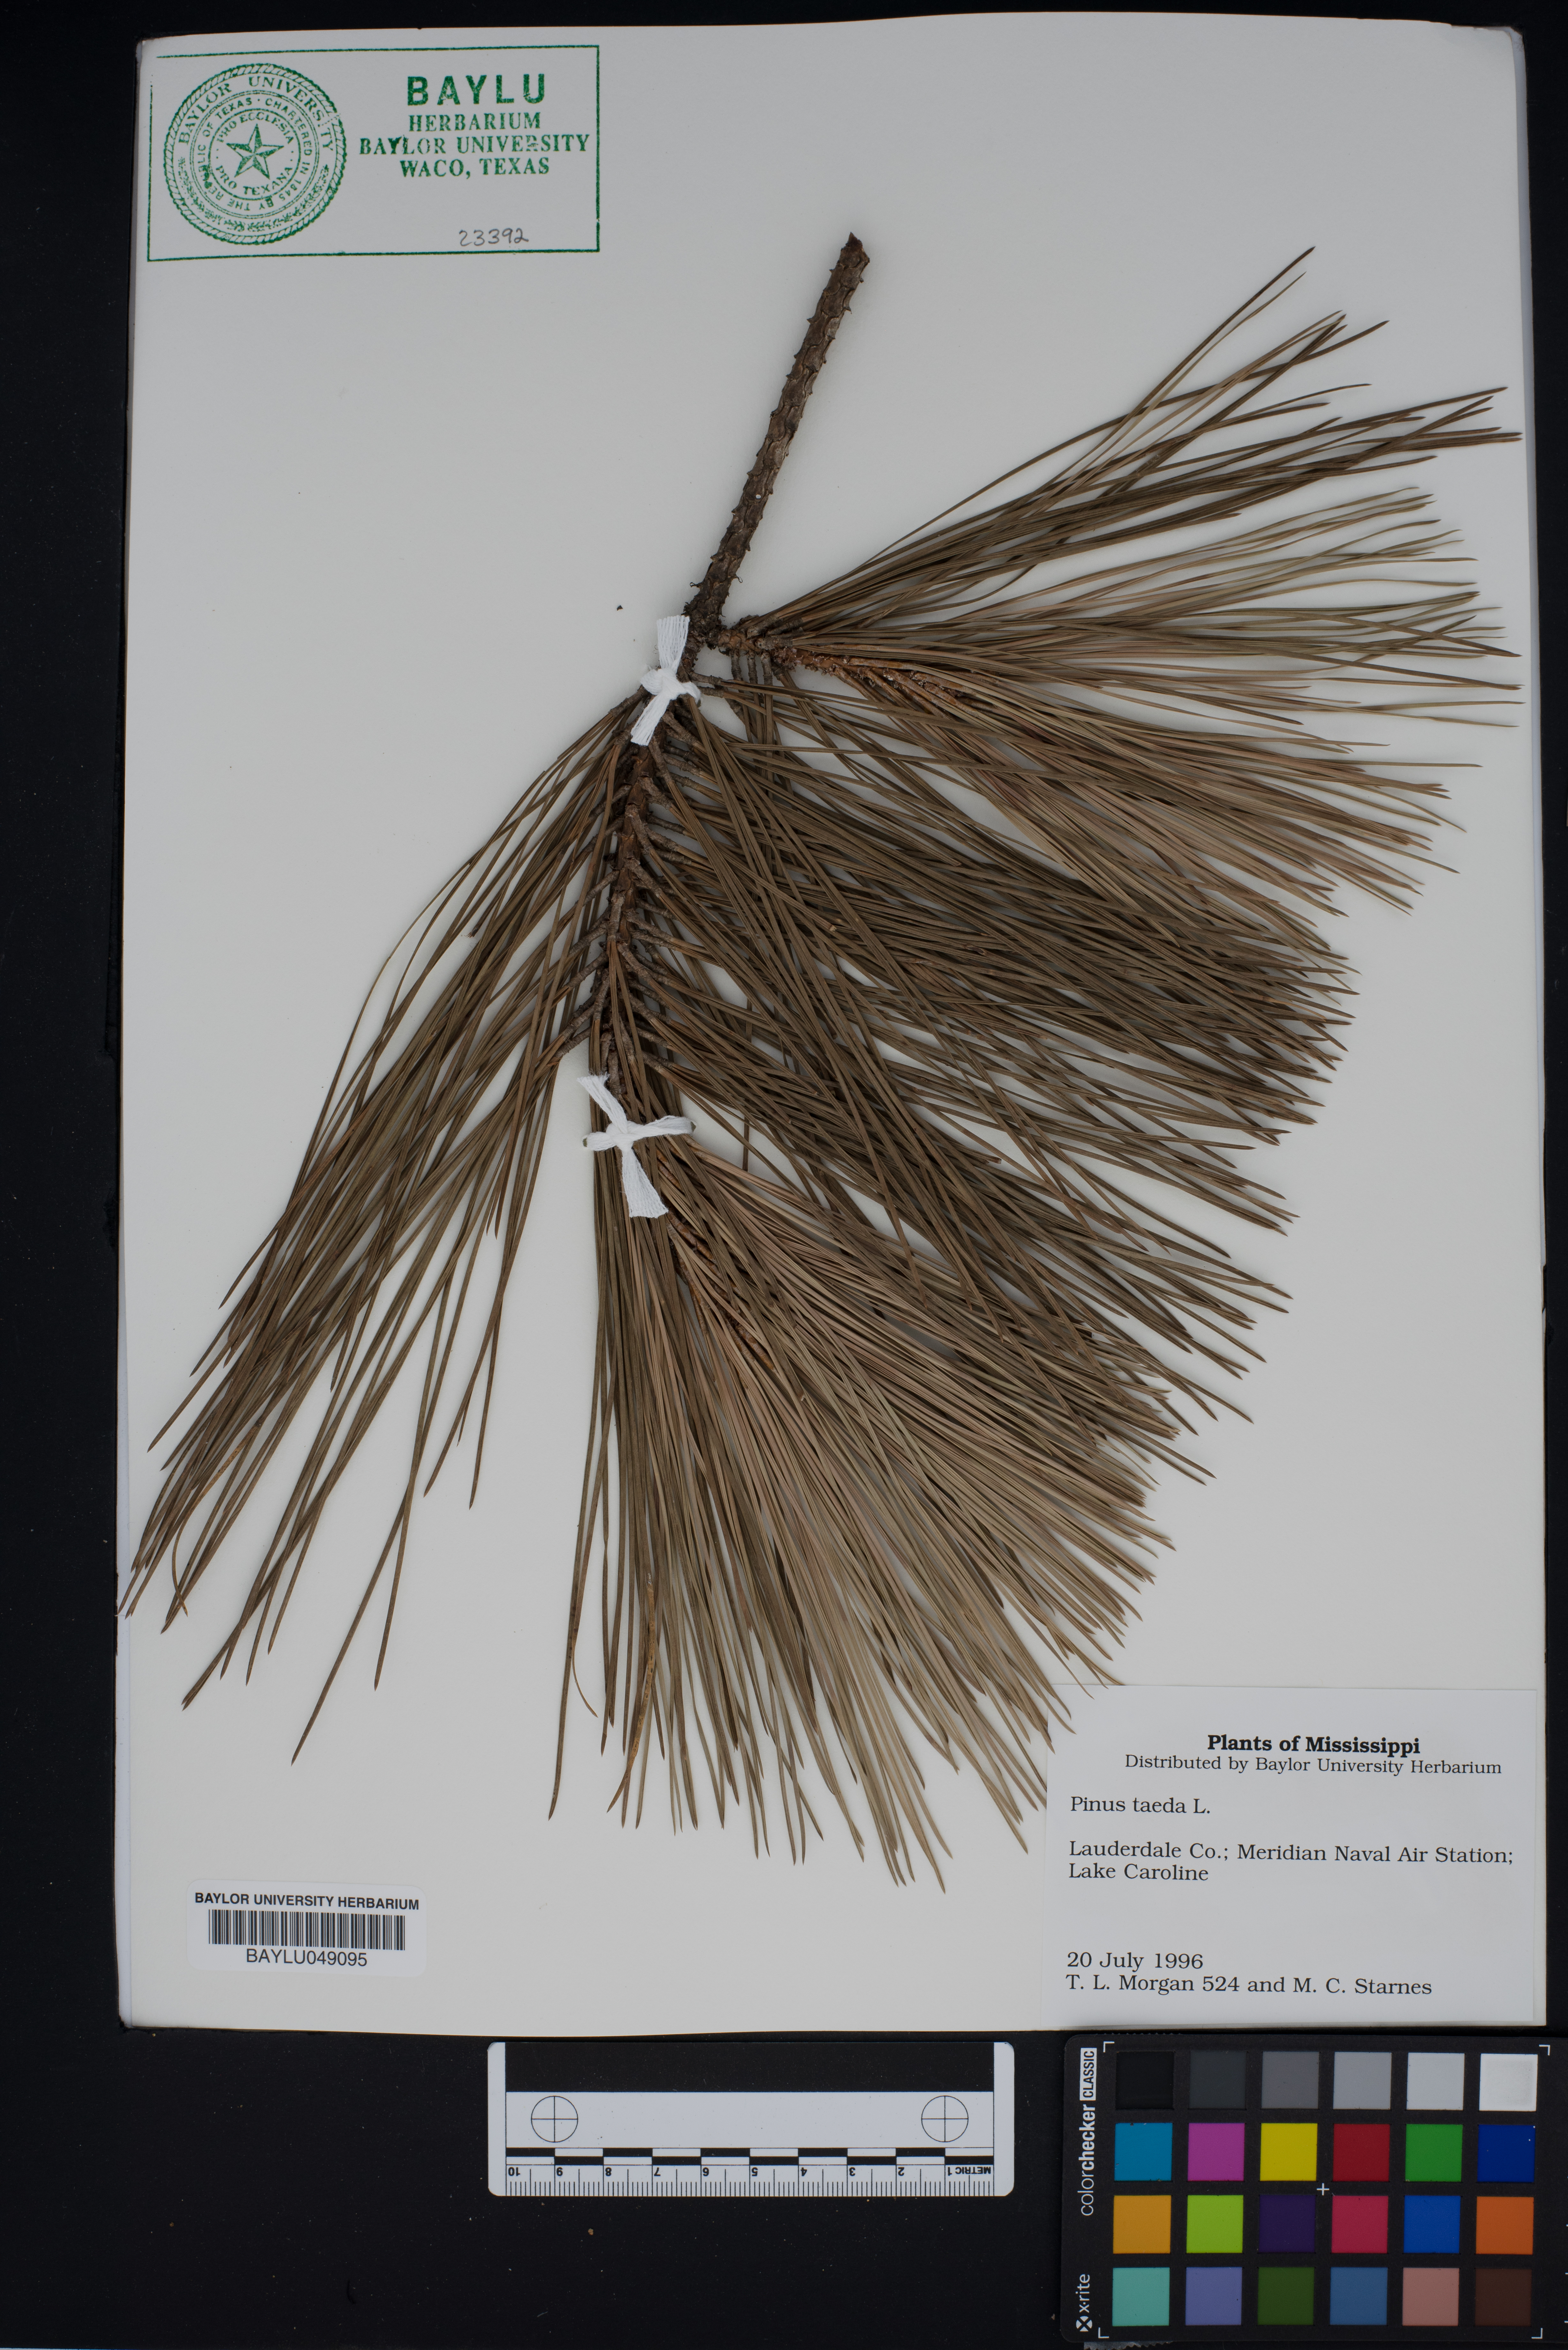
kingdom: Plantae
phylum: Tracheophyta
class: Pinopsida
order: Pinales
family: Pinaceae
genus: Pinus
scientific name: Pinus taeda
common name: Loblolly pine
